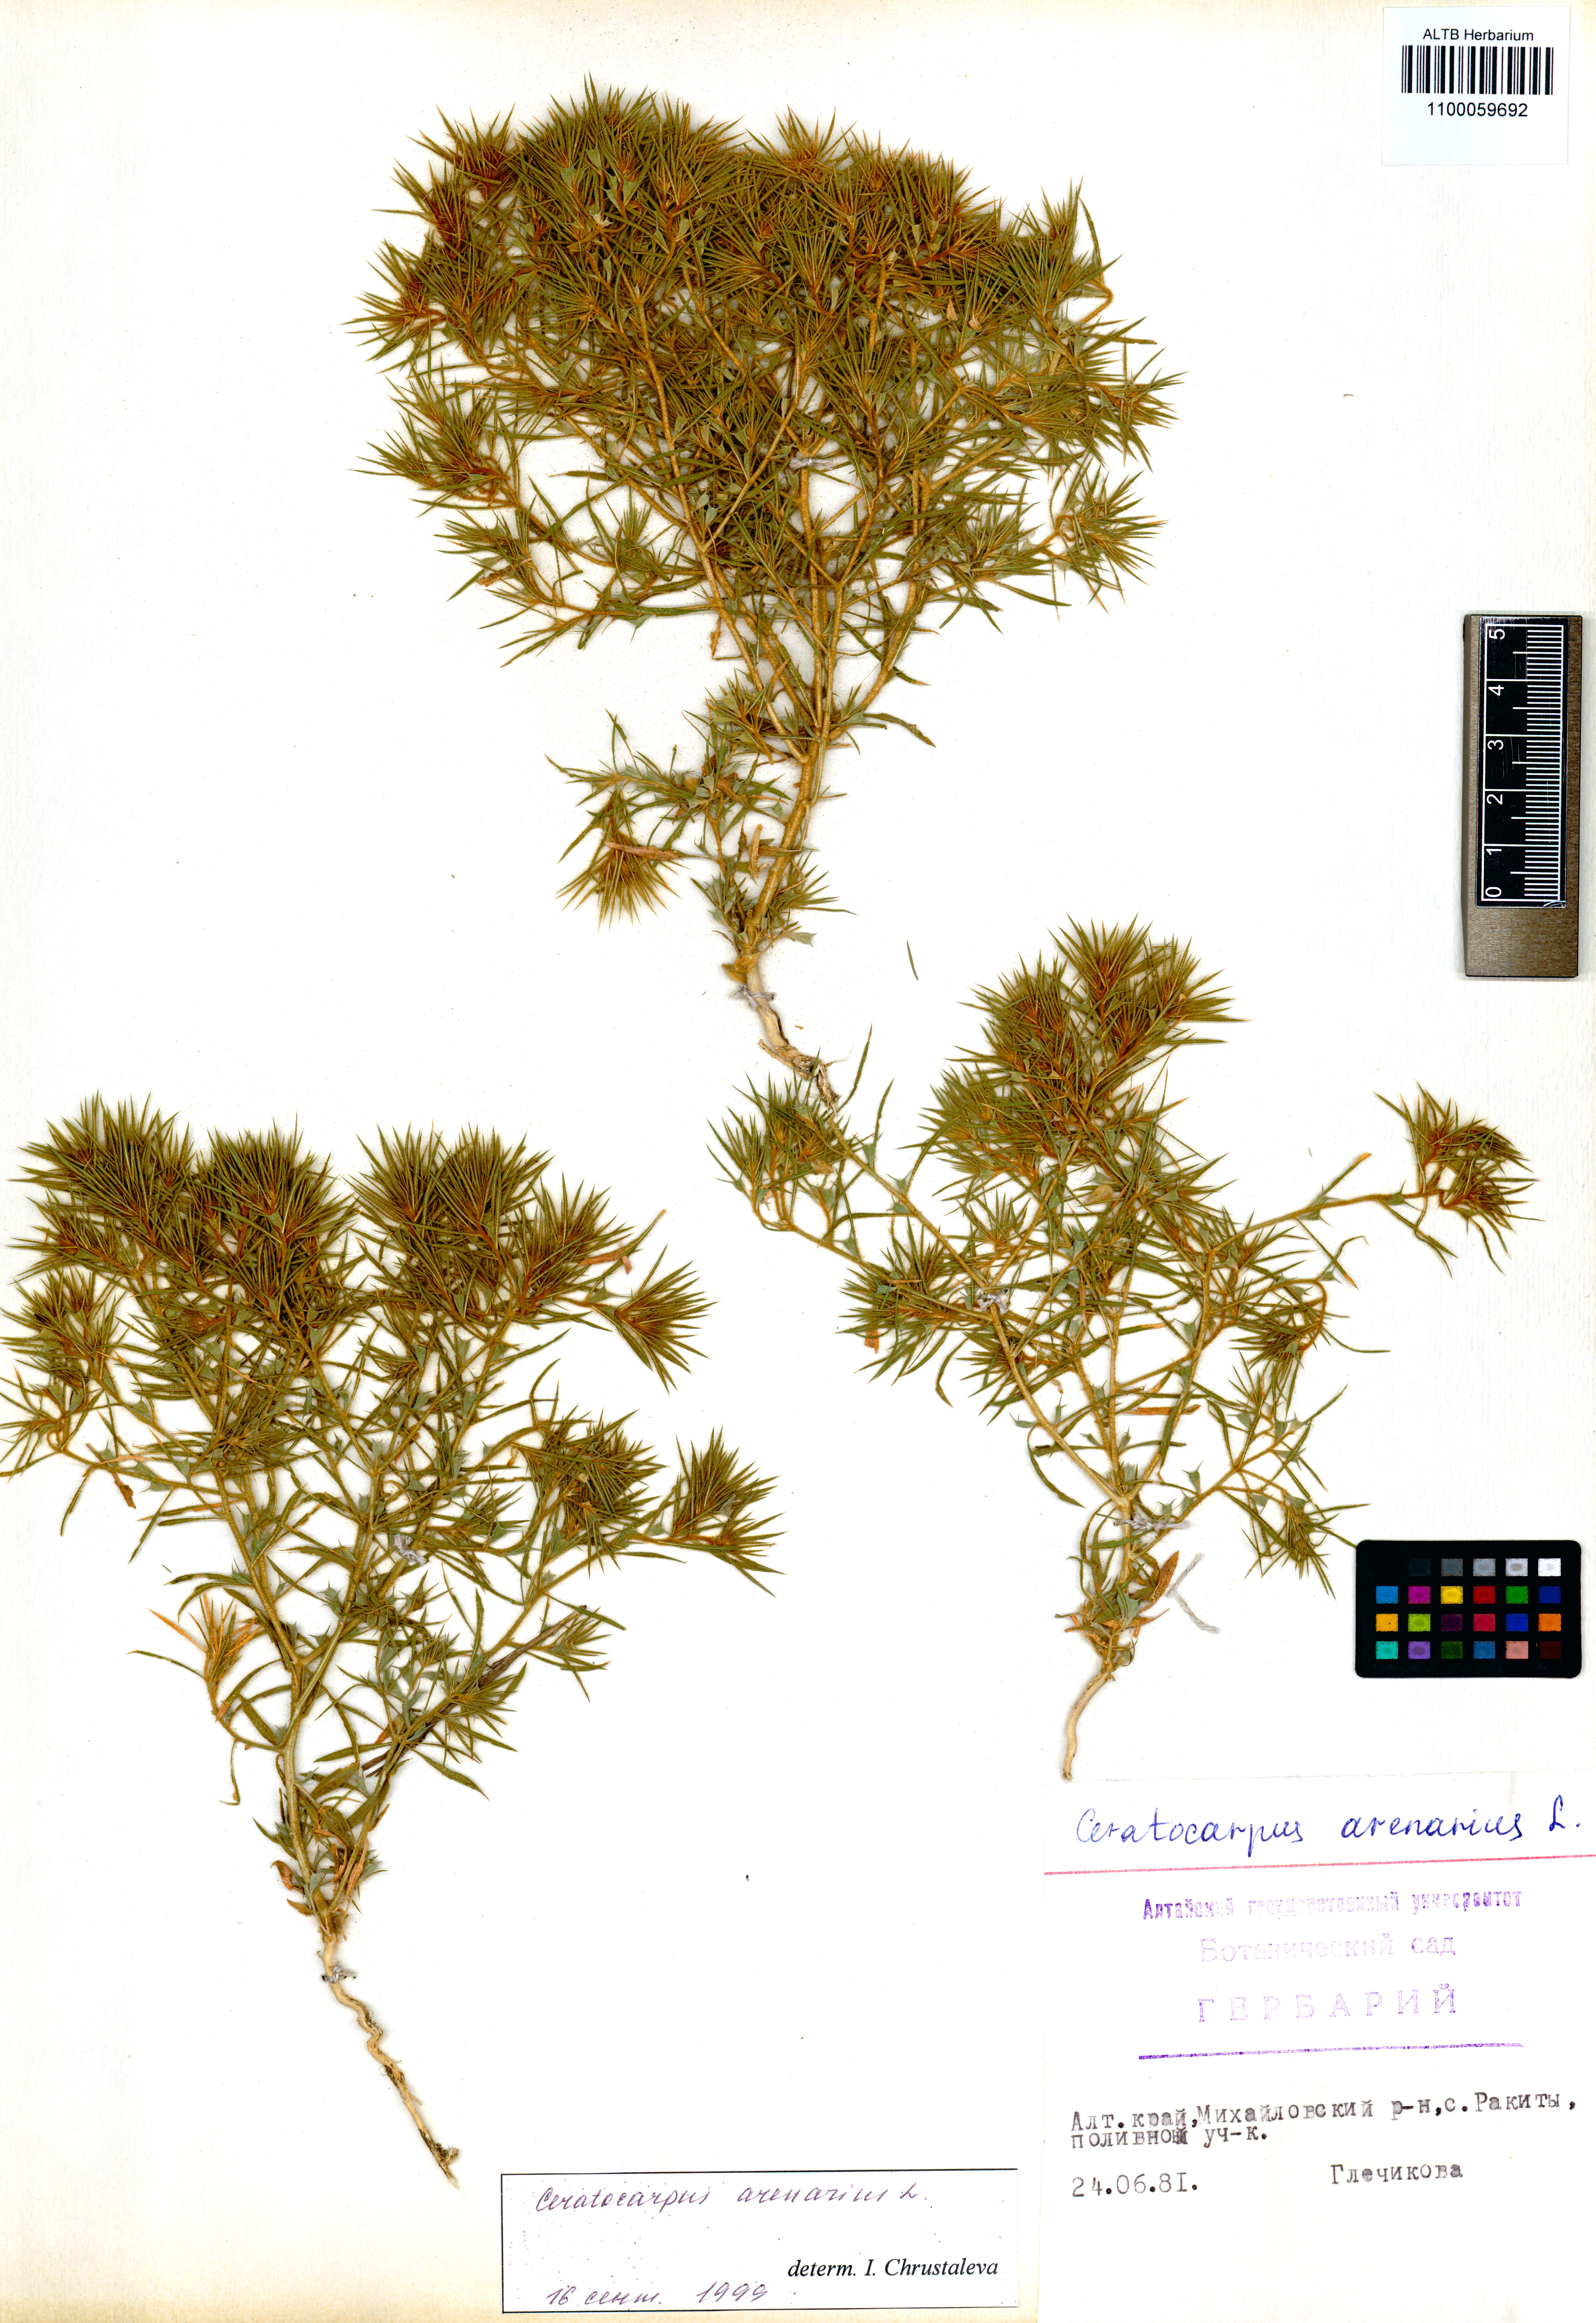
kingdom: Plantae
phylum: Tracheophyta
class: Magnoliopsida
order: Caryophyllales
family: Amaranthaceae
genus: Ceratocarpus
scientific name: Ceratocarpus arenarius
